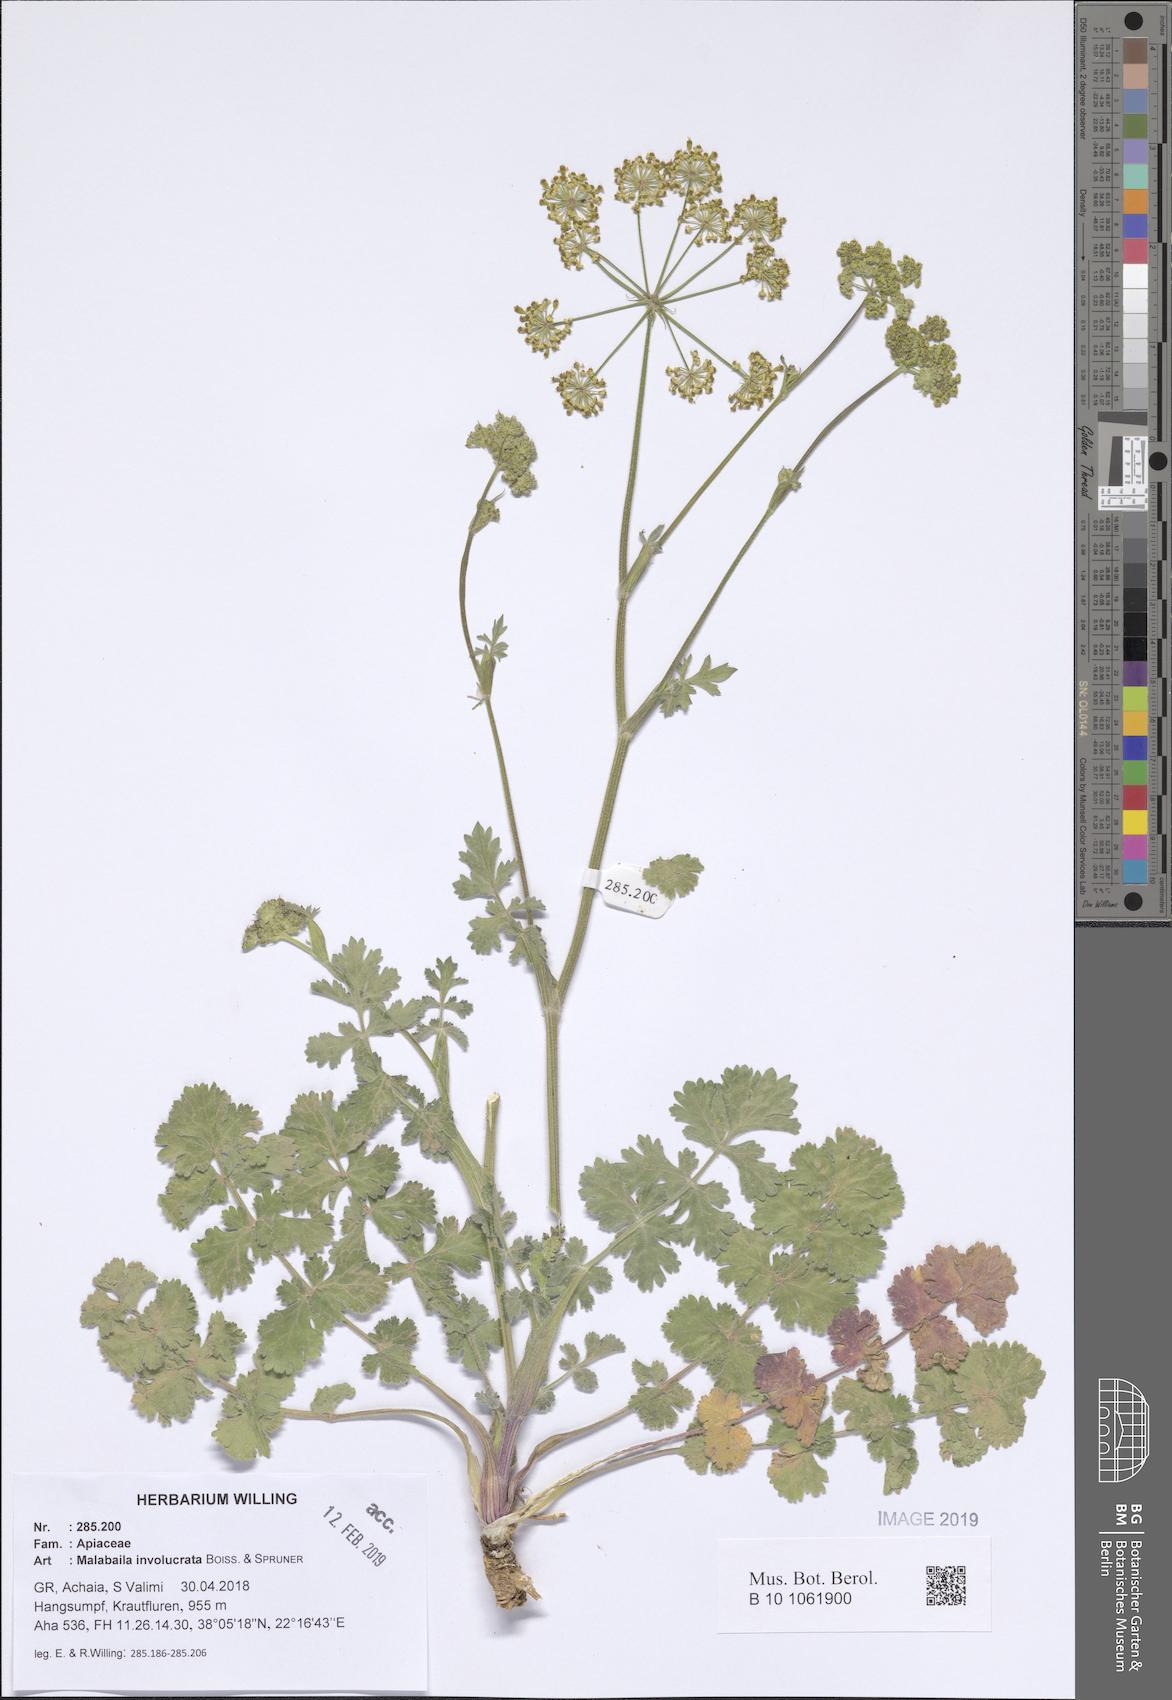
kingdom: Plantae
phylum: Tracheophyta
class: Magnoliopsida
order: Apiales
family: Apiaceae
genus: Leiotulus
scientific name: Leiotulus involucratus
